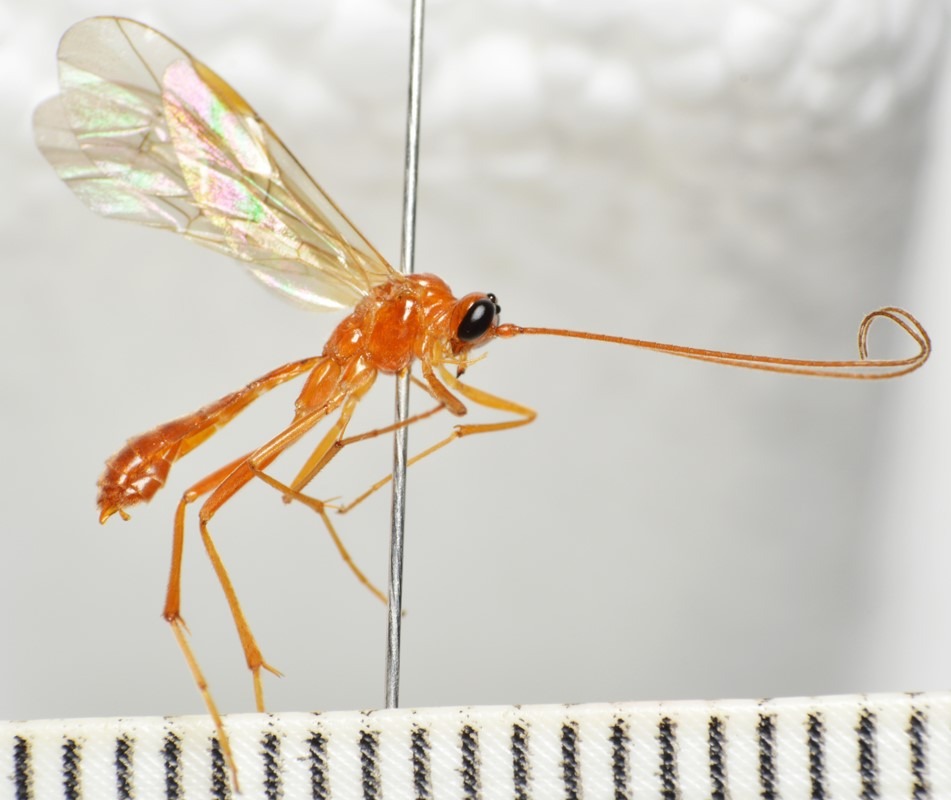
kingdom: Animalia
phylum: Arthropoda
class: Insecta
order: Hymenoptera
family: Ichneumonidae
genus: Absyrtus
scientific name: Absyrtus vicinator
